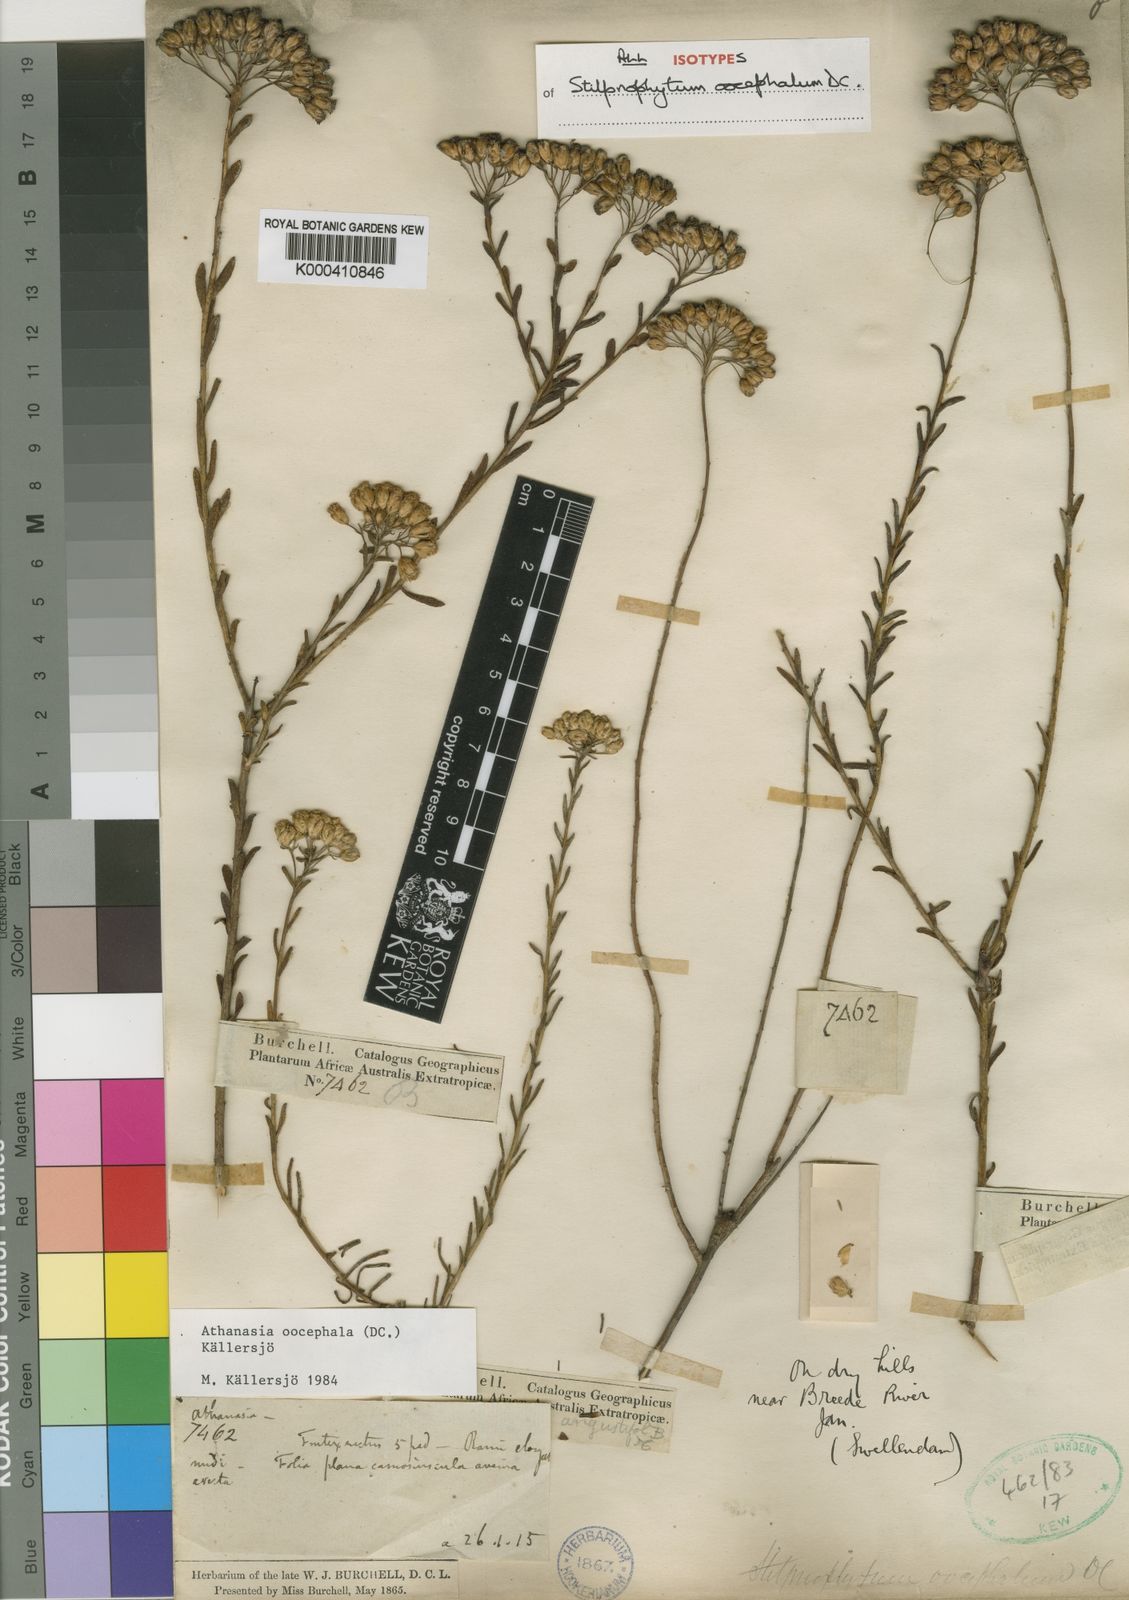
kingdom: Plantae
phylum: Tracheophyta
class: Magnoliopsida
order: Asterales
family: Asteraceae
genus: Athanasia
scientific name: Athanasia
